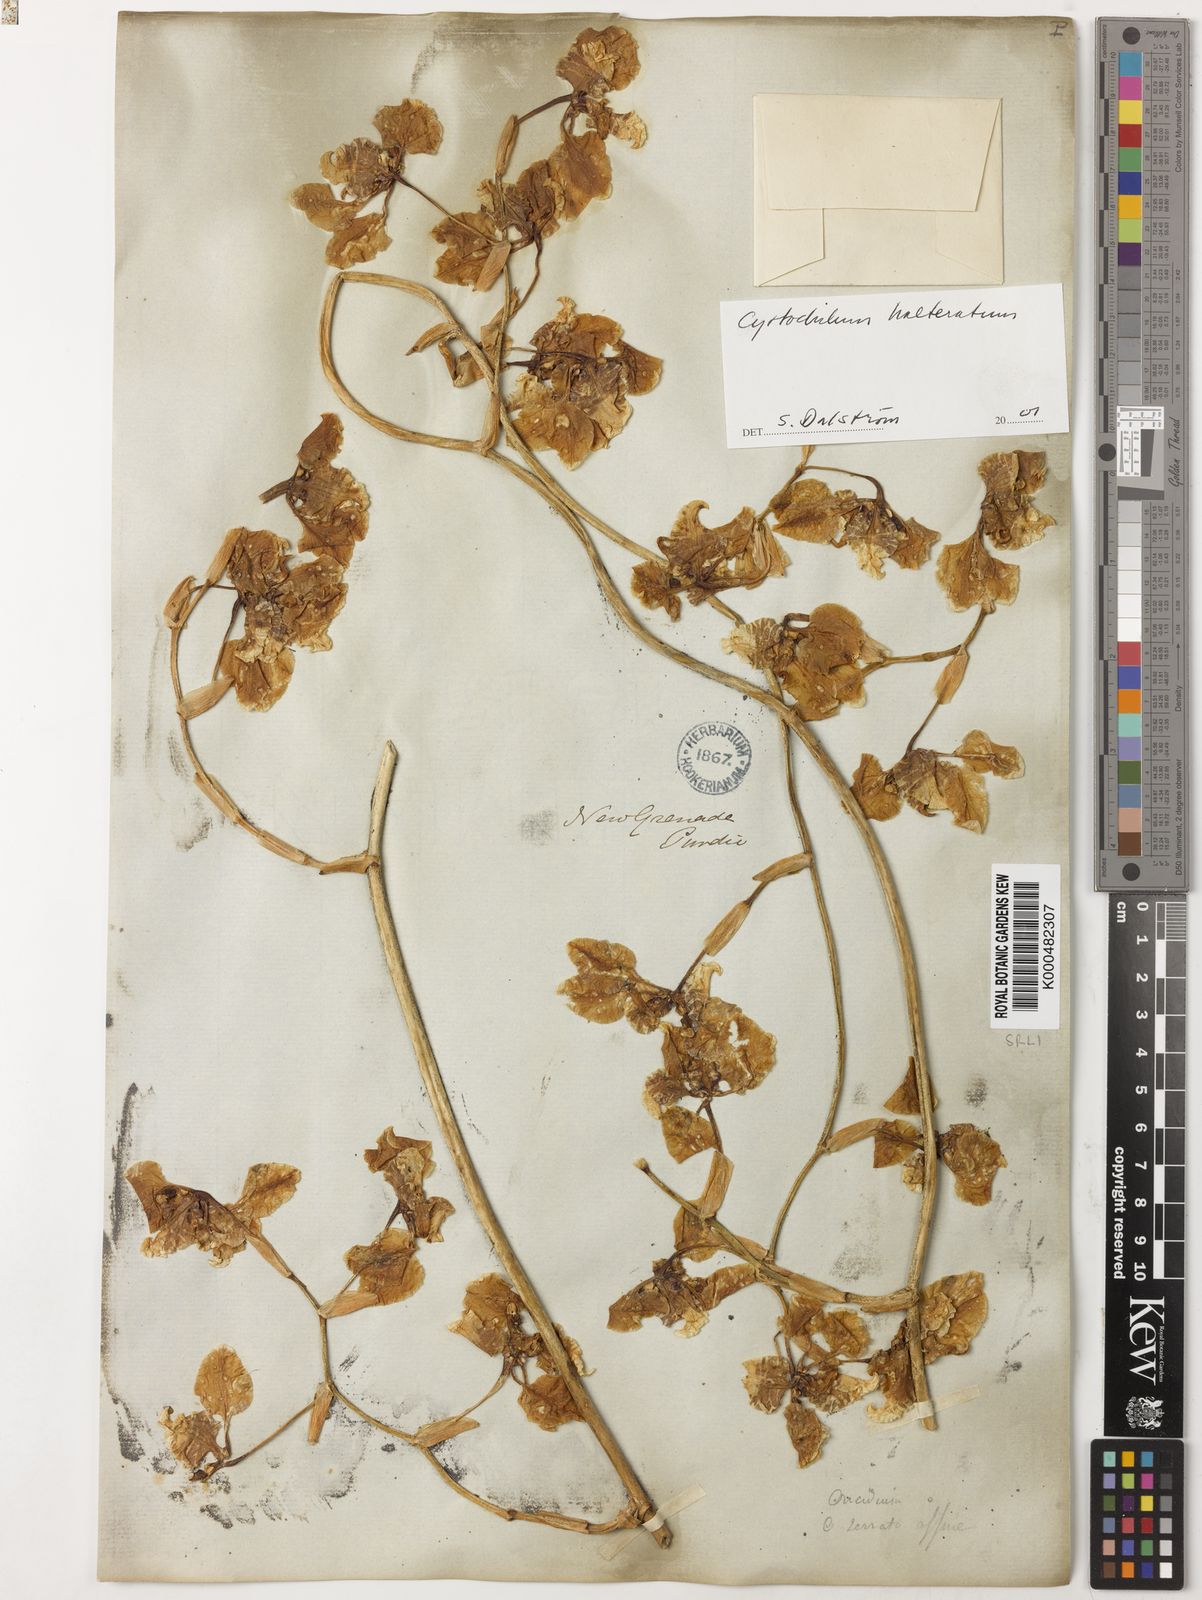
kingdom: Plantae
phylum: Tracheophyta
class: Liliopsida
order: Asparagales
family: Orchidaceae
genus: Cyrtochilum
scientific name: Cyrtochilum halteratum
